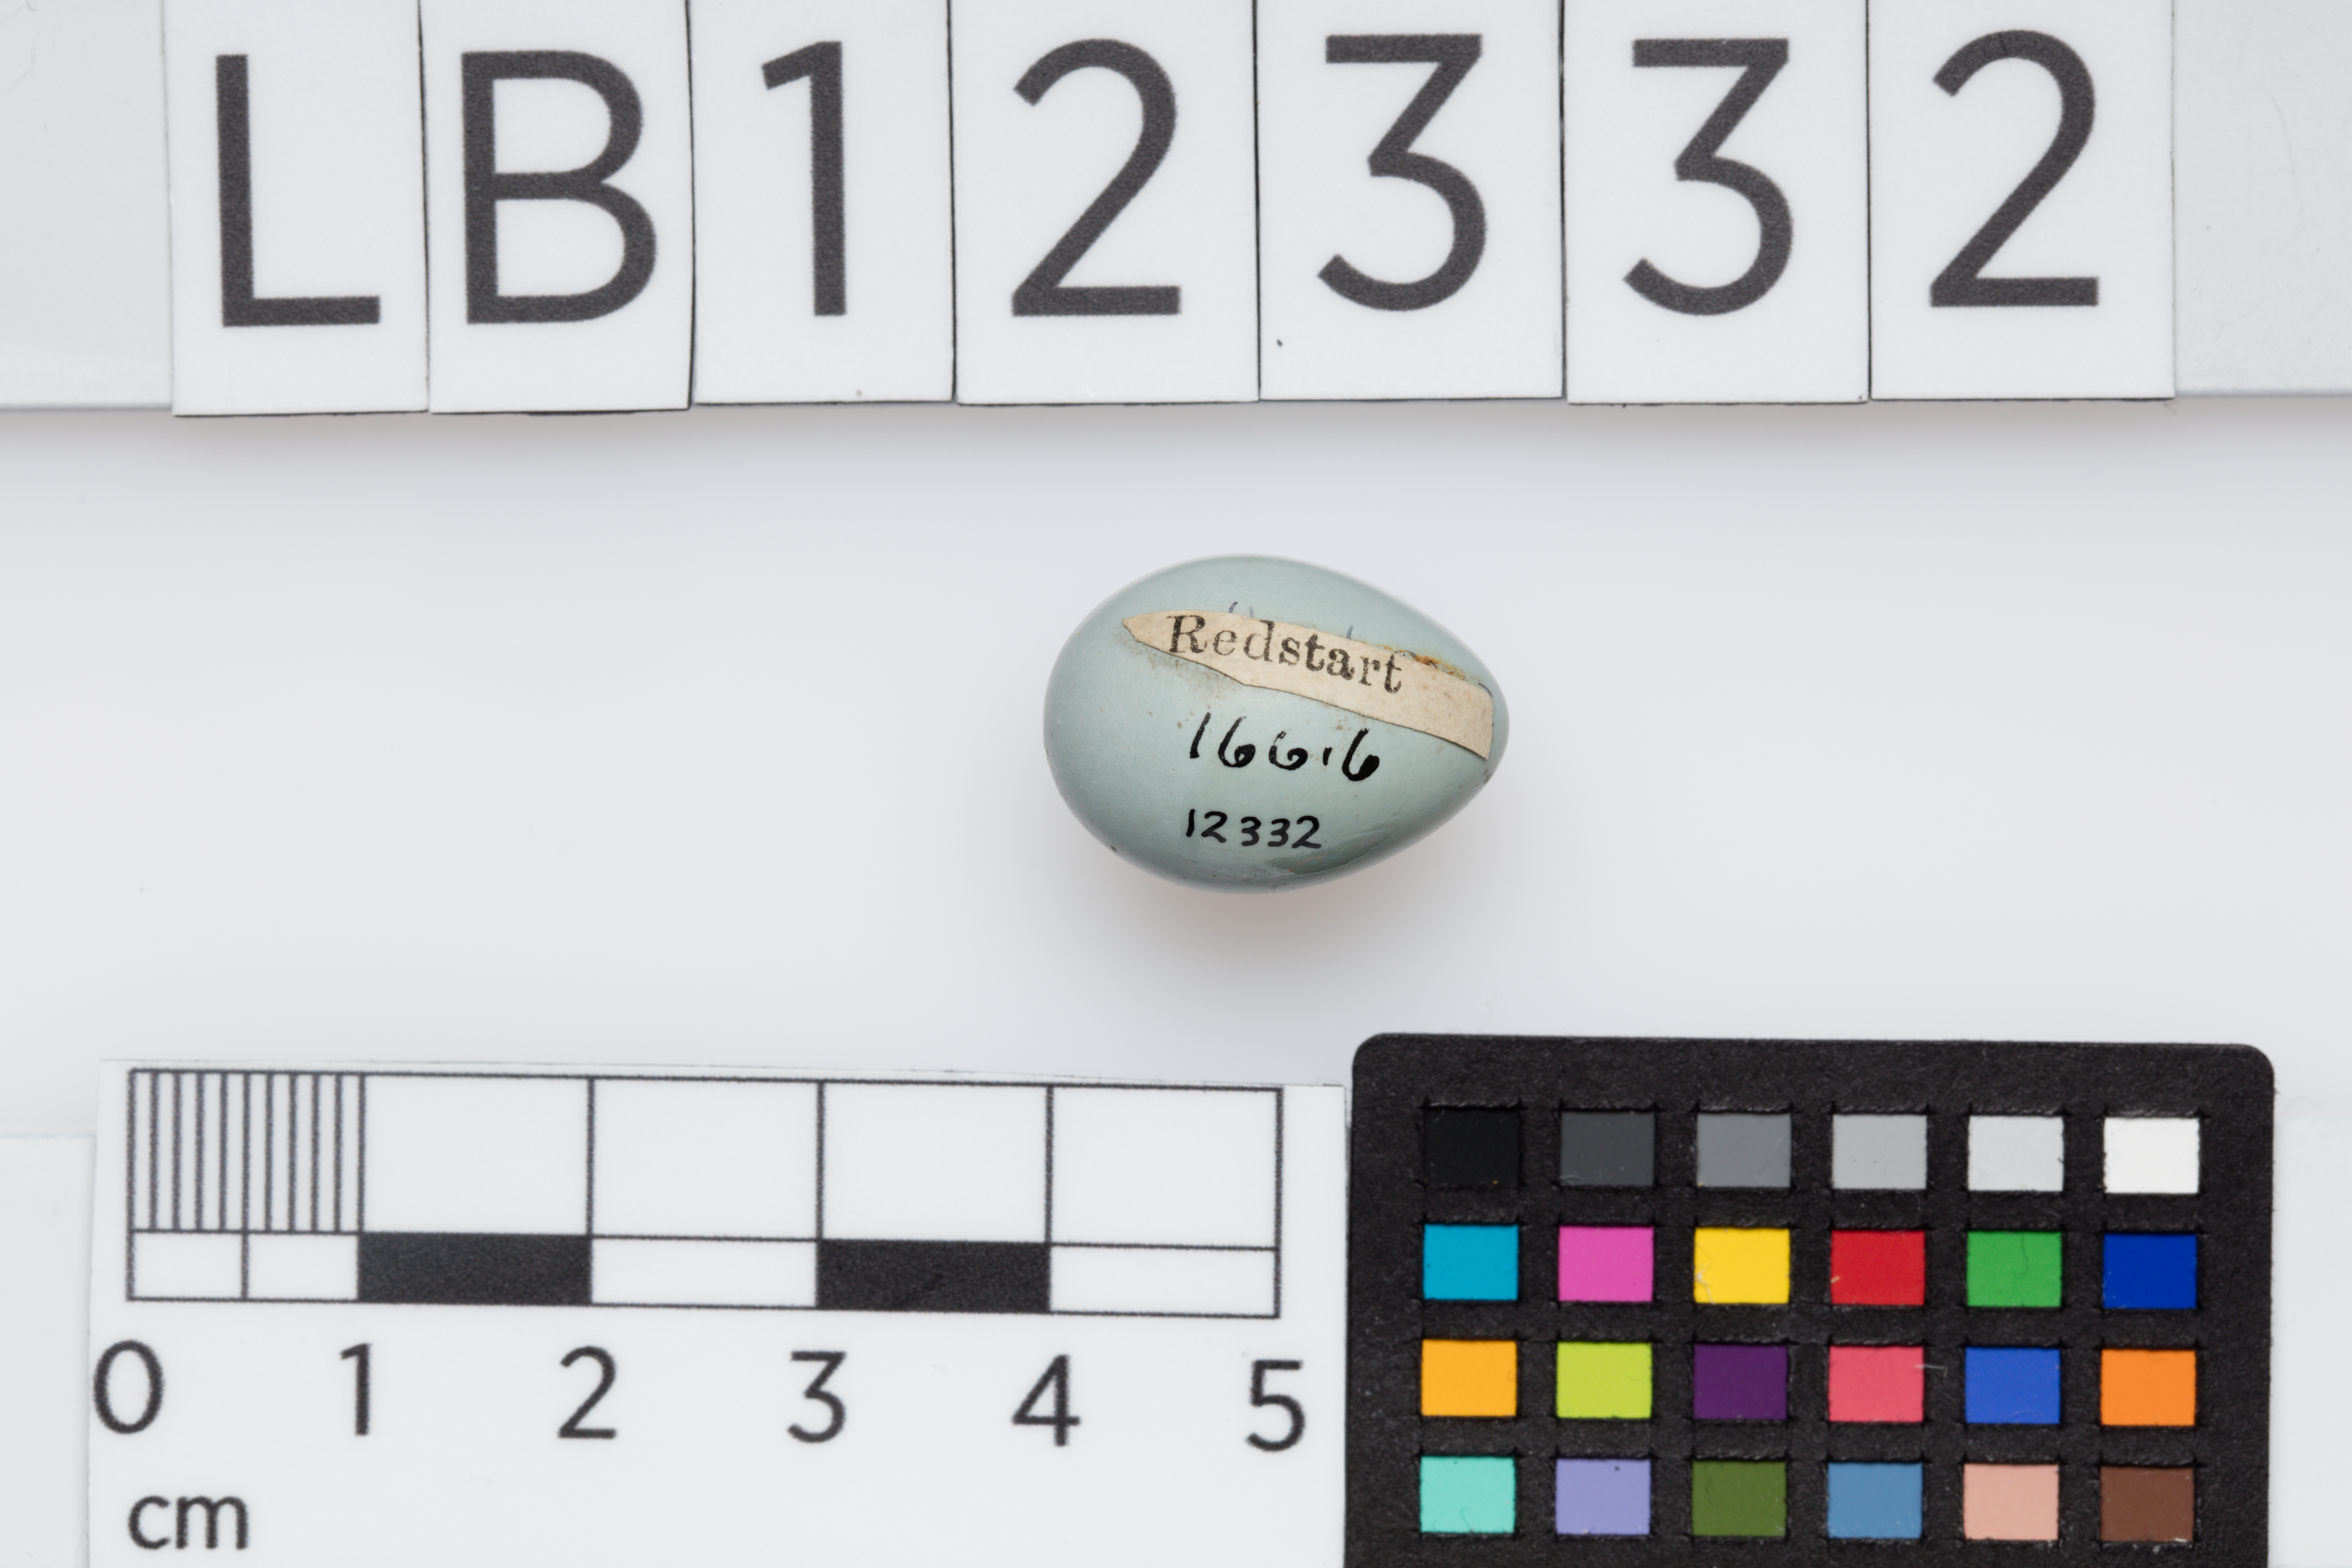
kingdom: Animalia
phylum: Chordata
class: Aves
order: Passeriformes
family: Muscicapidae
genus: Phoenicurus
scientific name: Phoenicurus phoenicurus
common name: Common redstart
